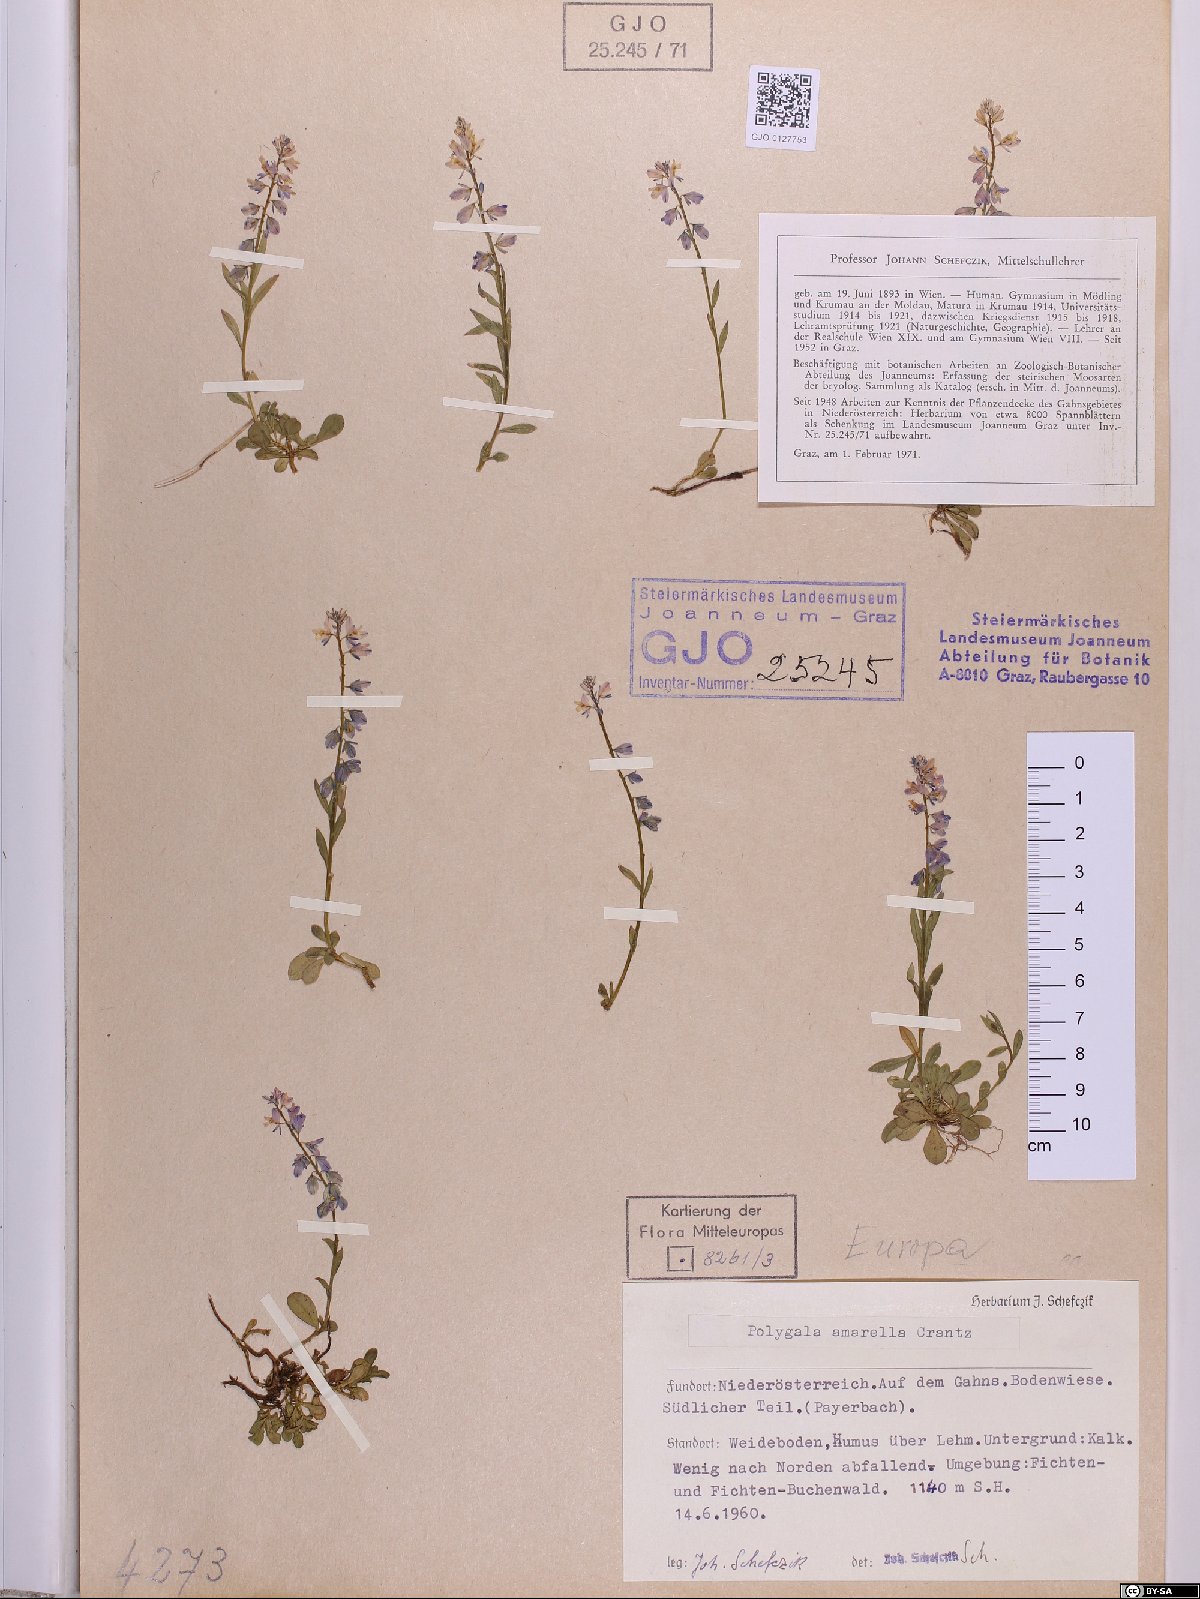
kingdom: Plantae
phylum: Tracheophyta
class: Magnoliopsida
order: Fabales
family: Polygalaceae
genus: Polygala
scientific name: Polygala amarella
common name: Dwarf milkwort
